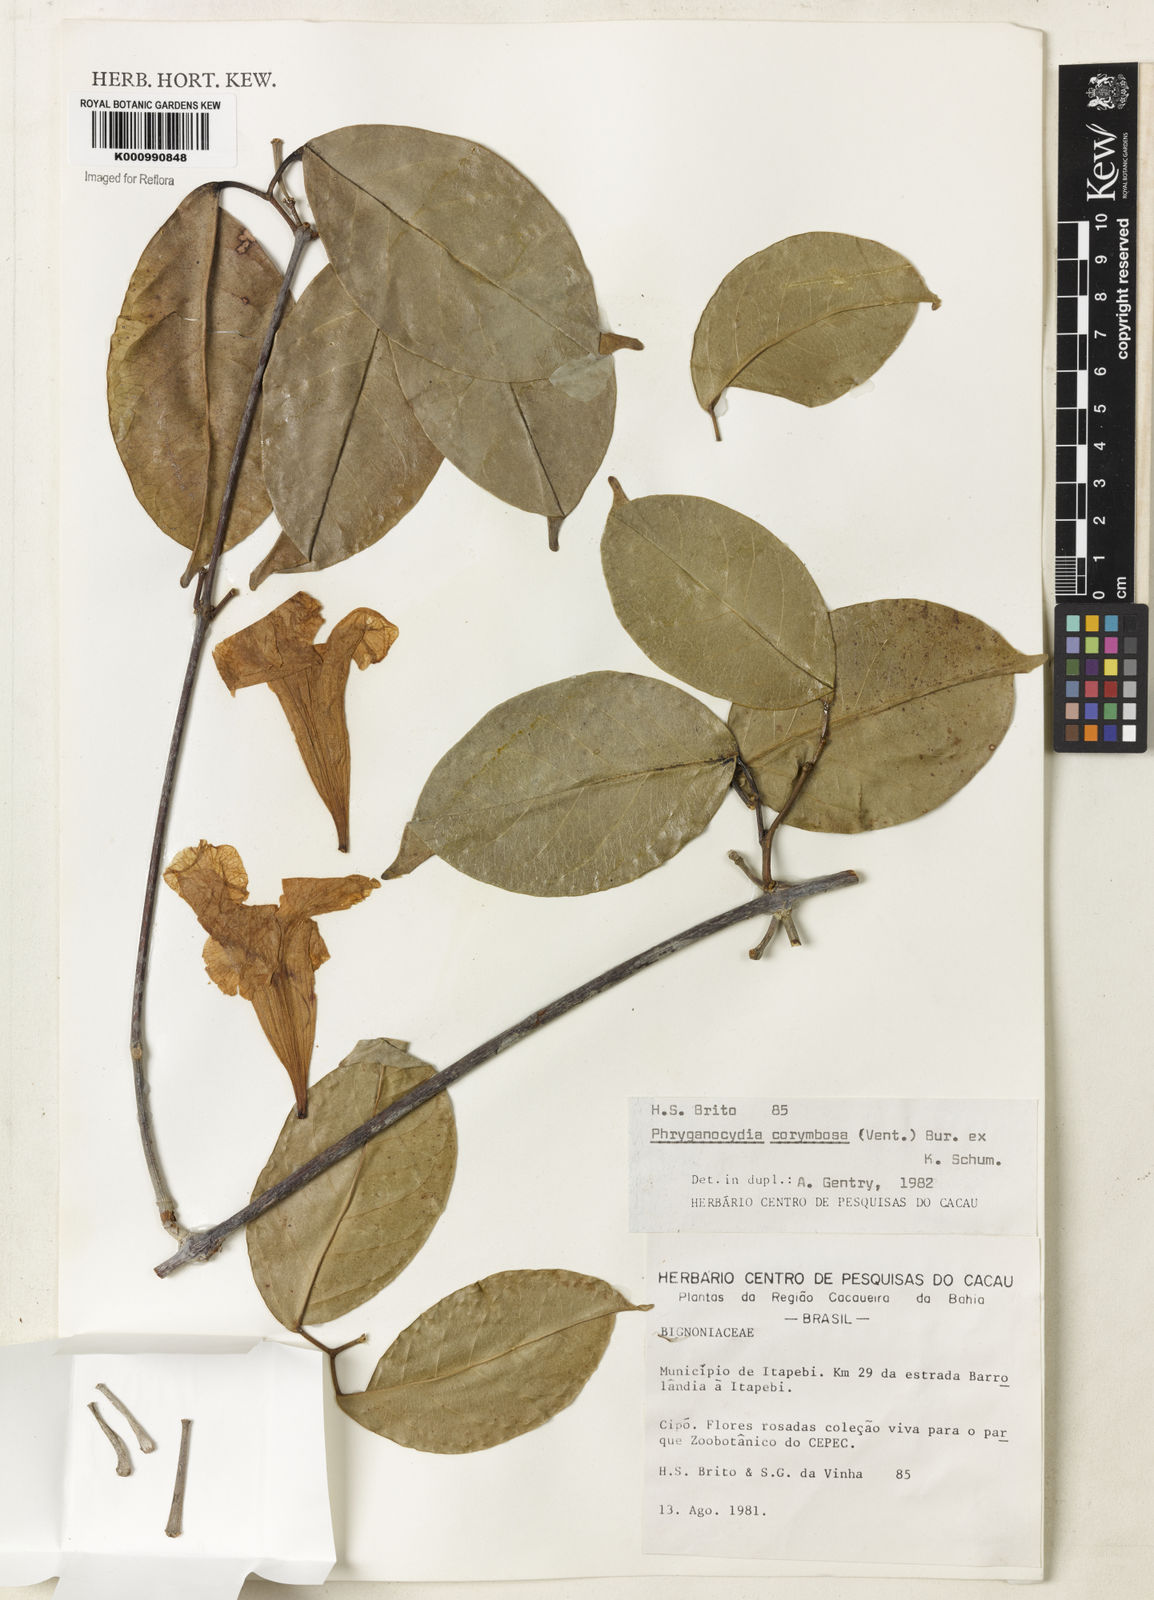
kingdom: Plantae
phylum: Tracheophyta
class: Magnoliopsida
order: Lamiales
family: Bignoniaceae
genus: Bignonia
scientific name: Bignonia corymbosa
